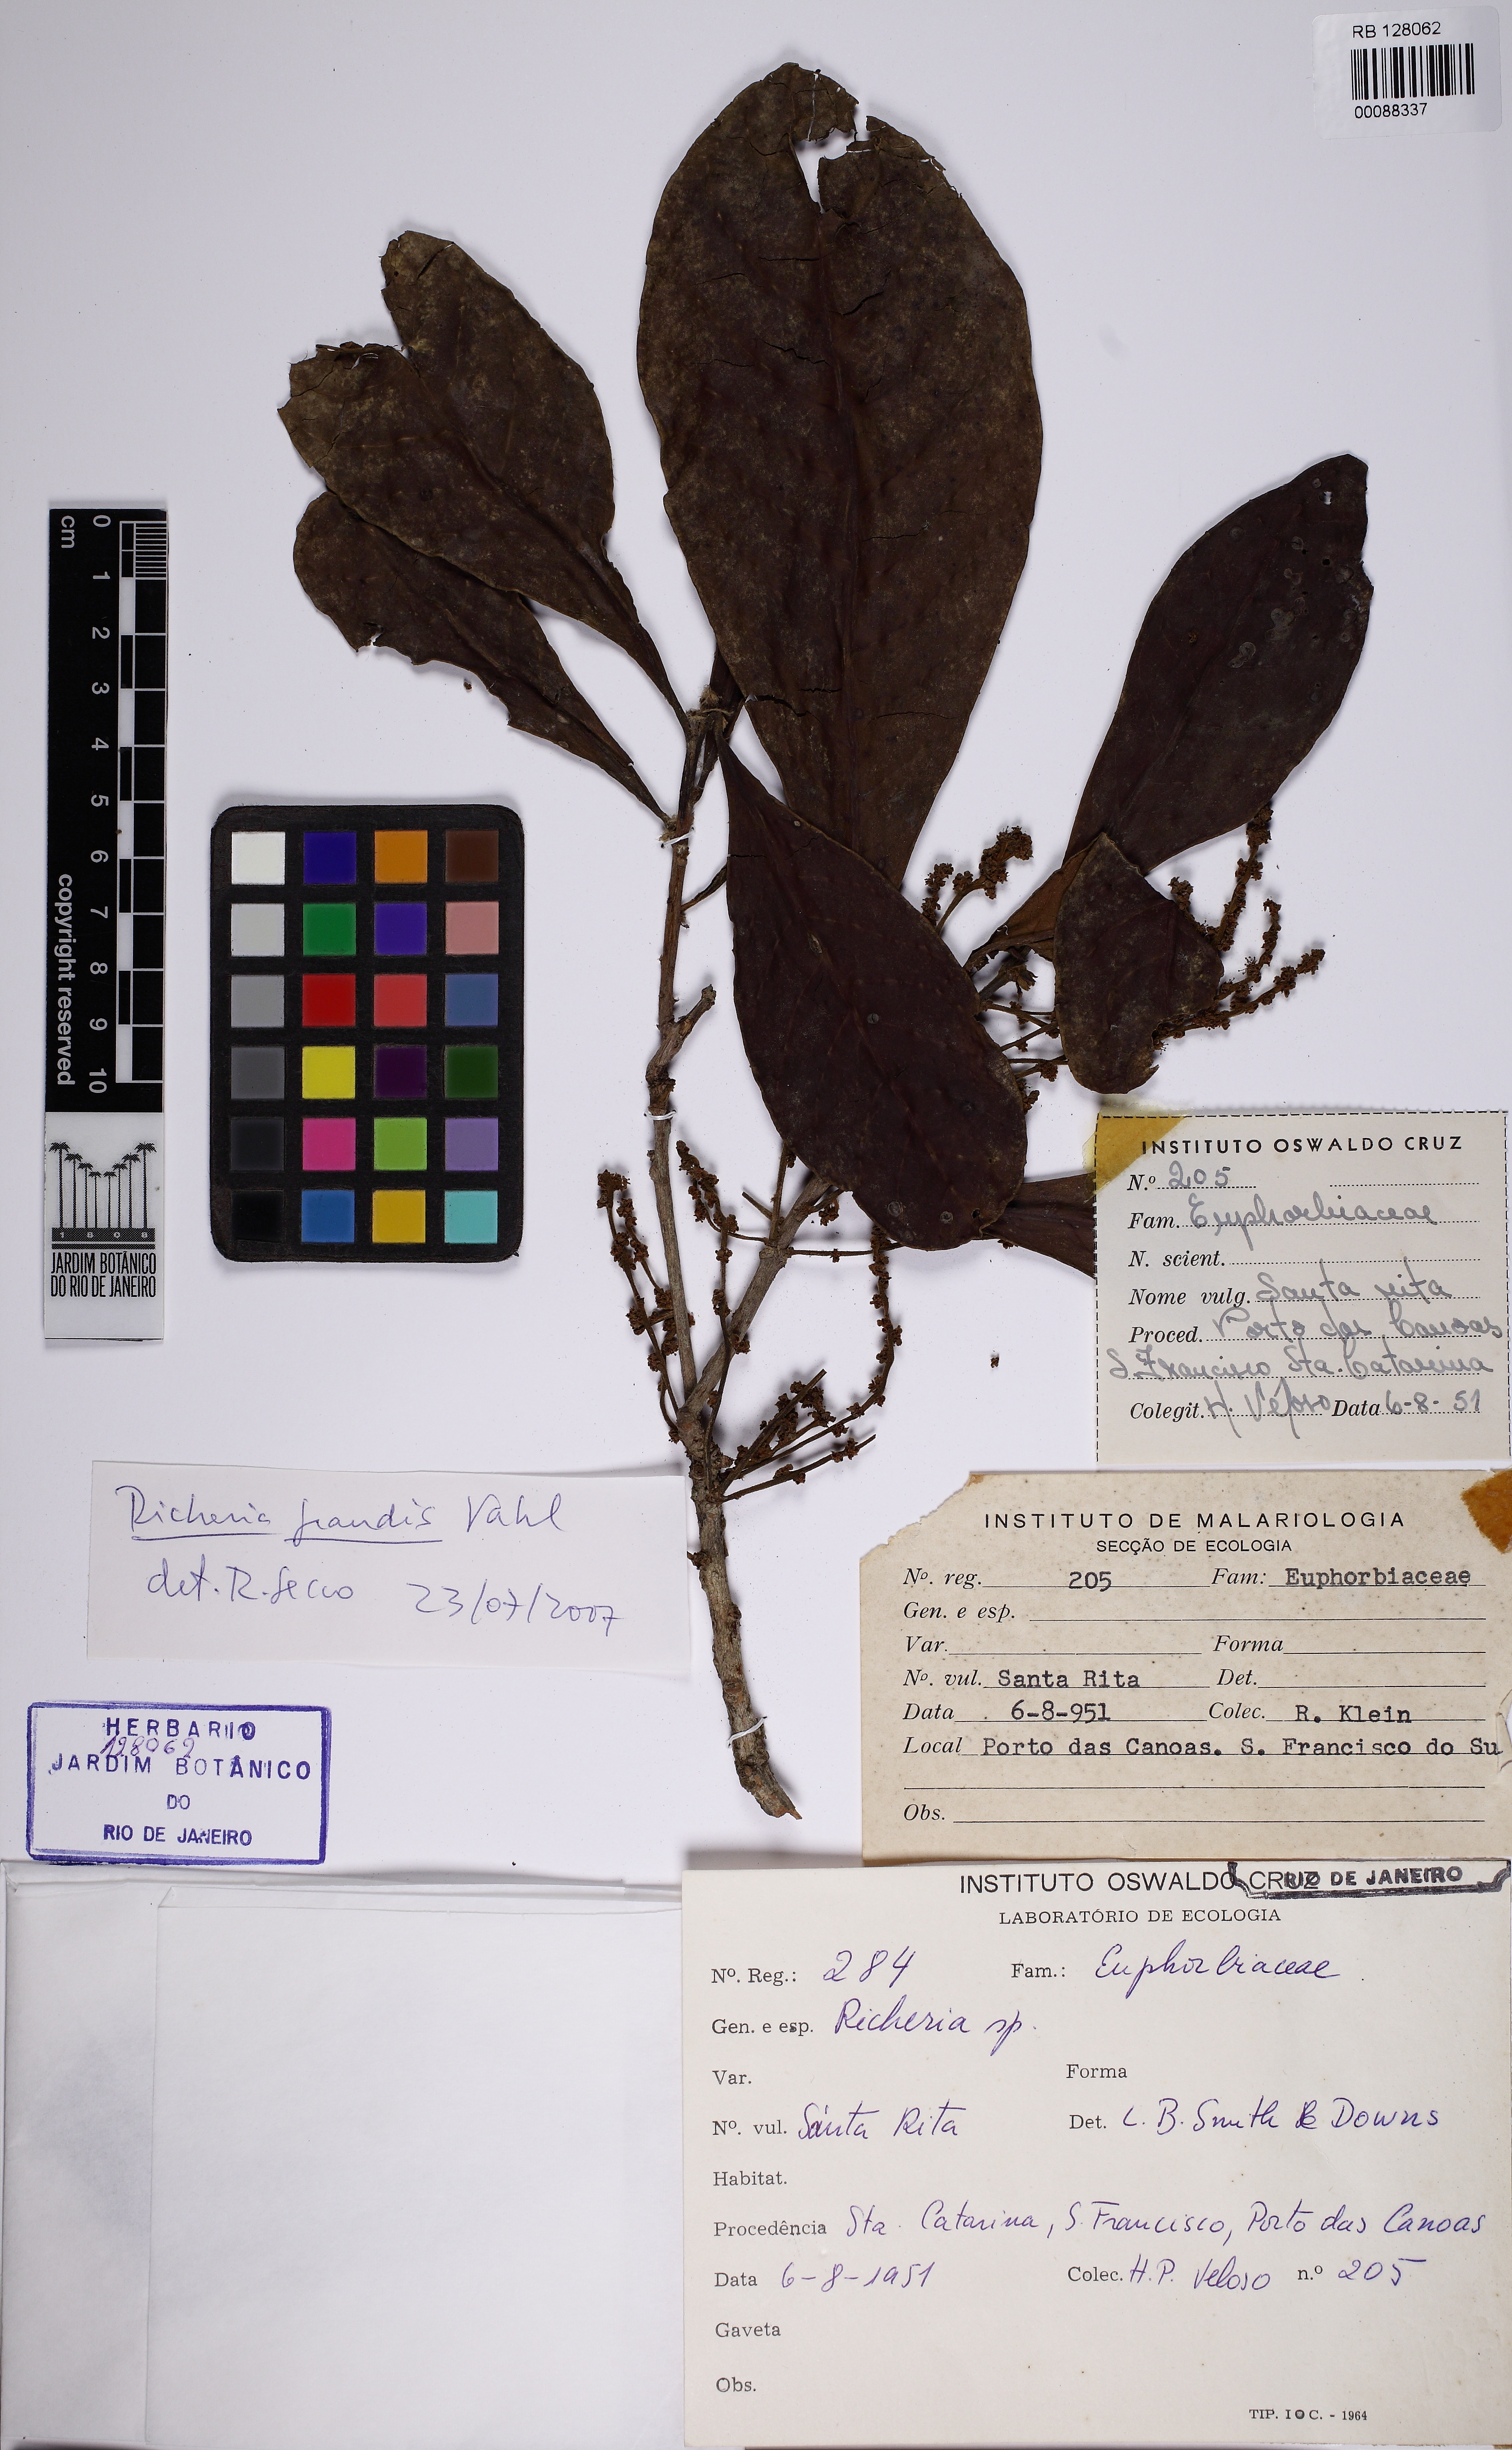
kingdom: Plantae
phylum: Tracheophyta
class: Magnoliopsida
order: Malpighiales
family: Phyllanthaceae
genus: Richeria
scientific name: Richeria grandis
